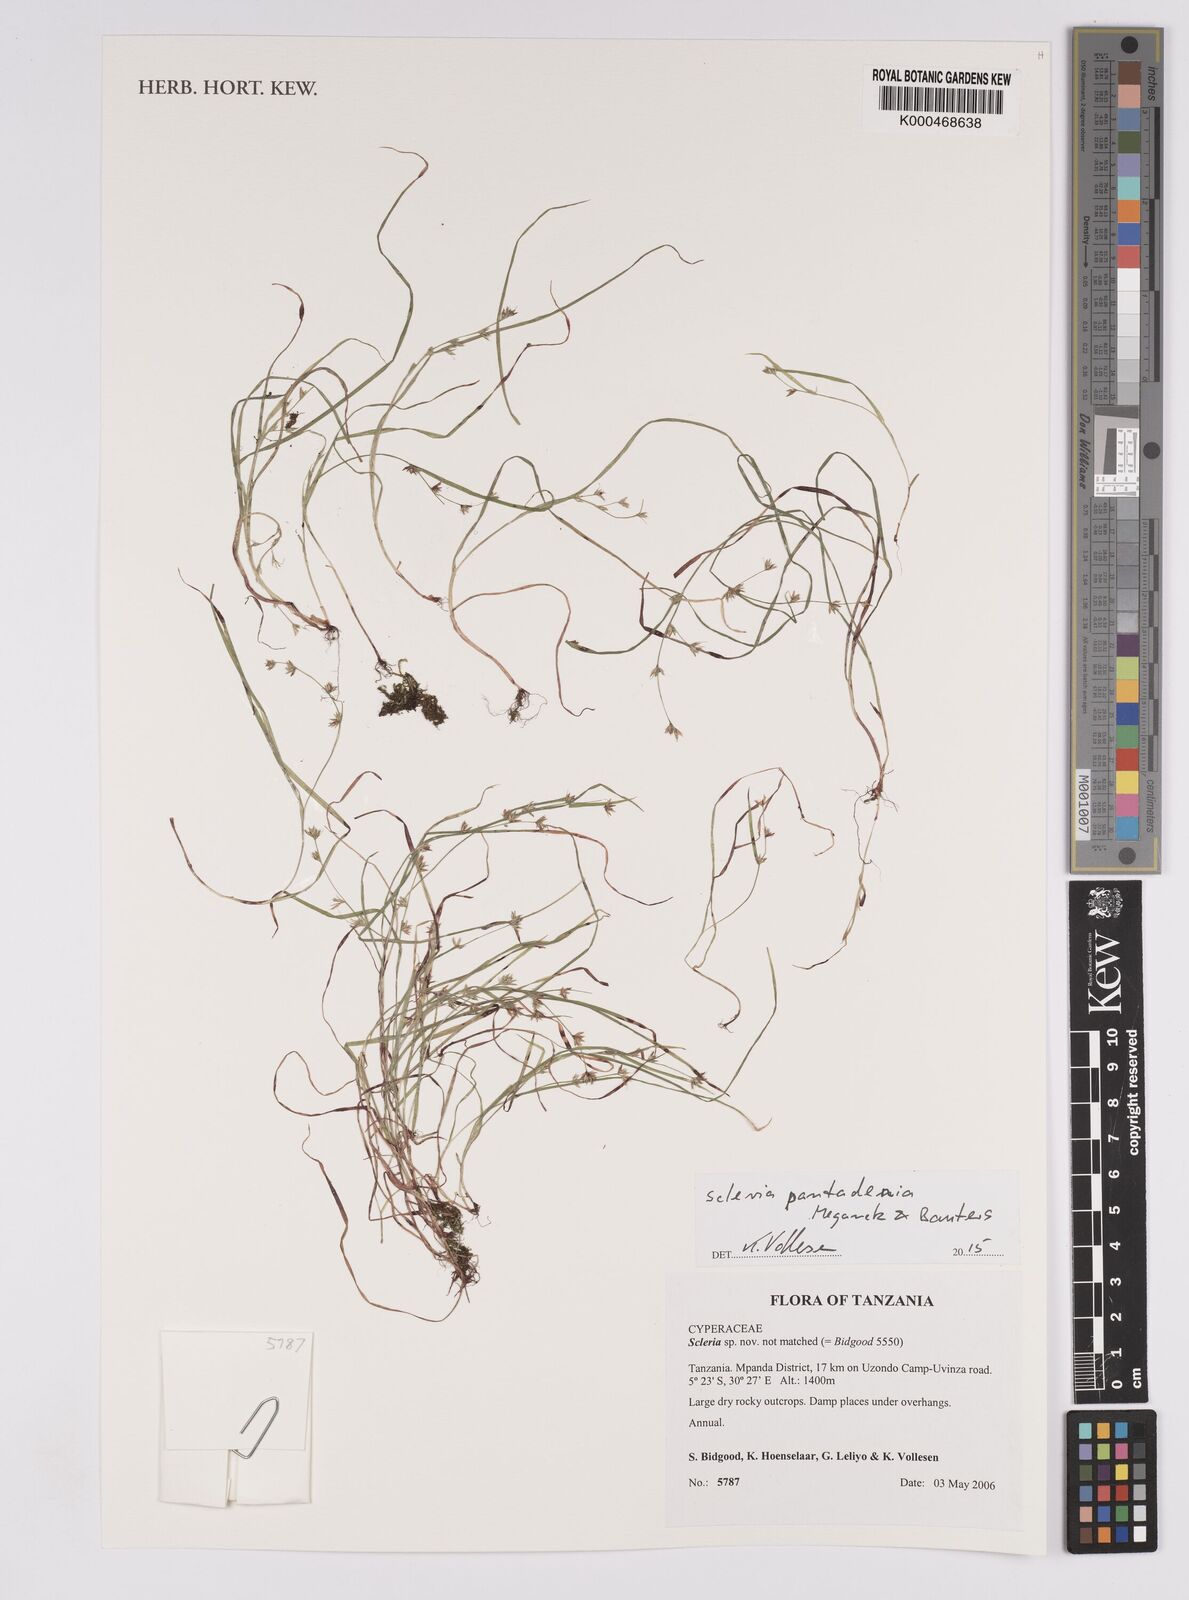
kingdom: Plantae
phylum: Tracheophyta
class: Liliopsida
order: Poales
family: Cyperaceae
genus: Scleria
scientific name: Scleria
